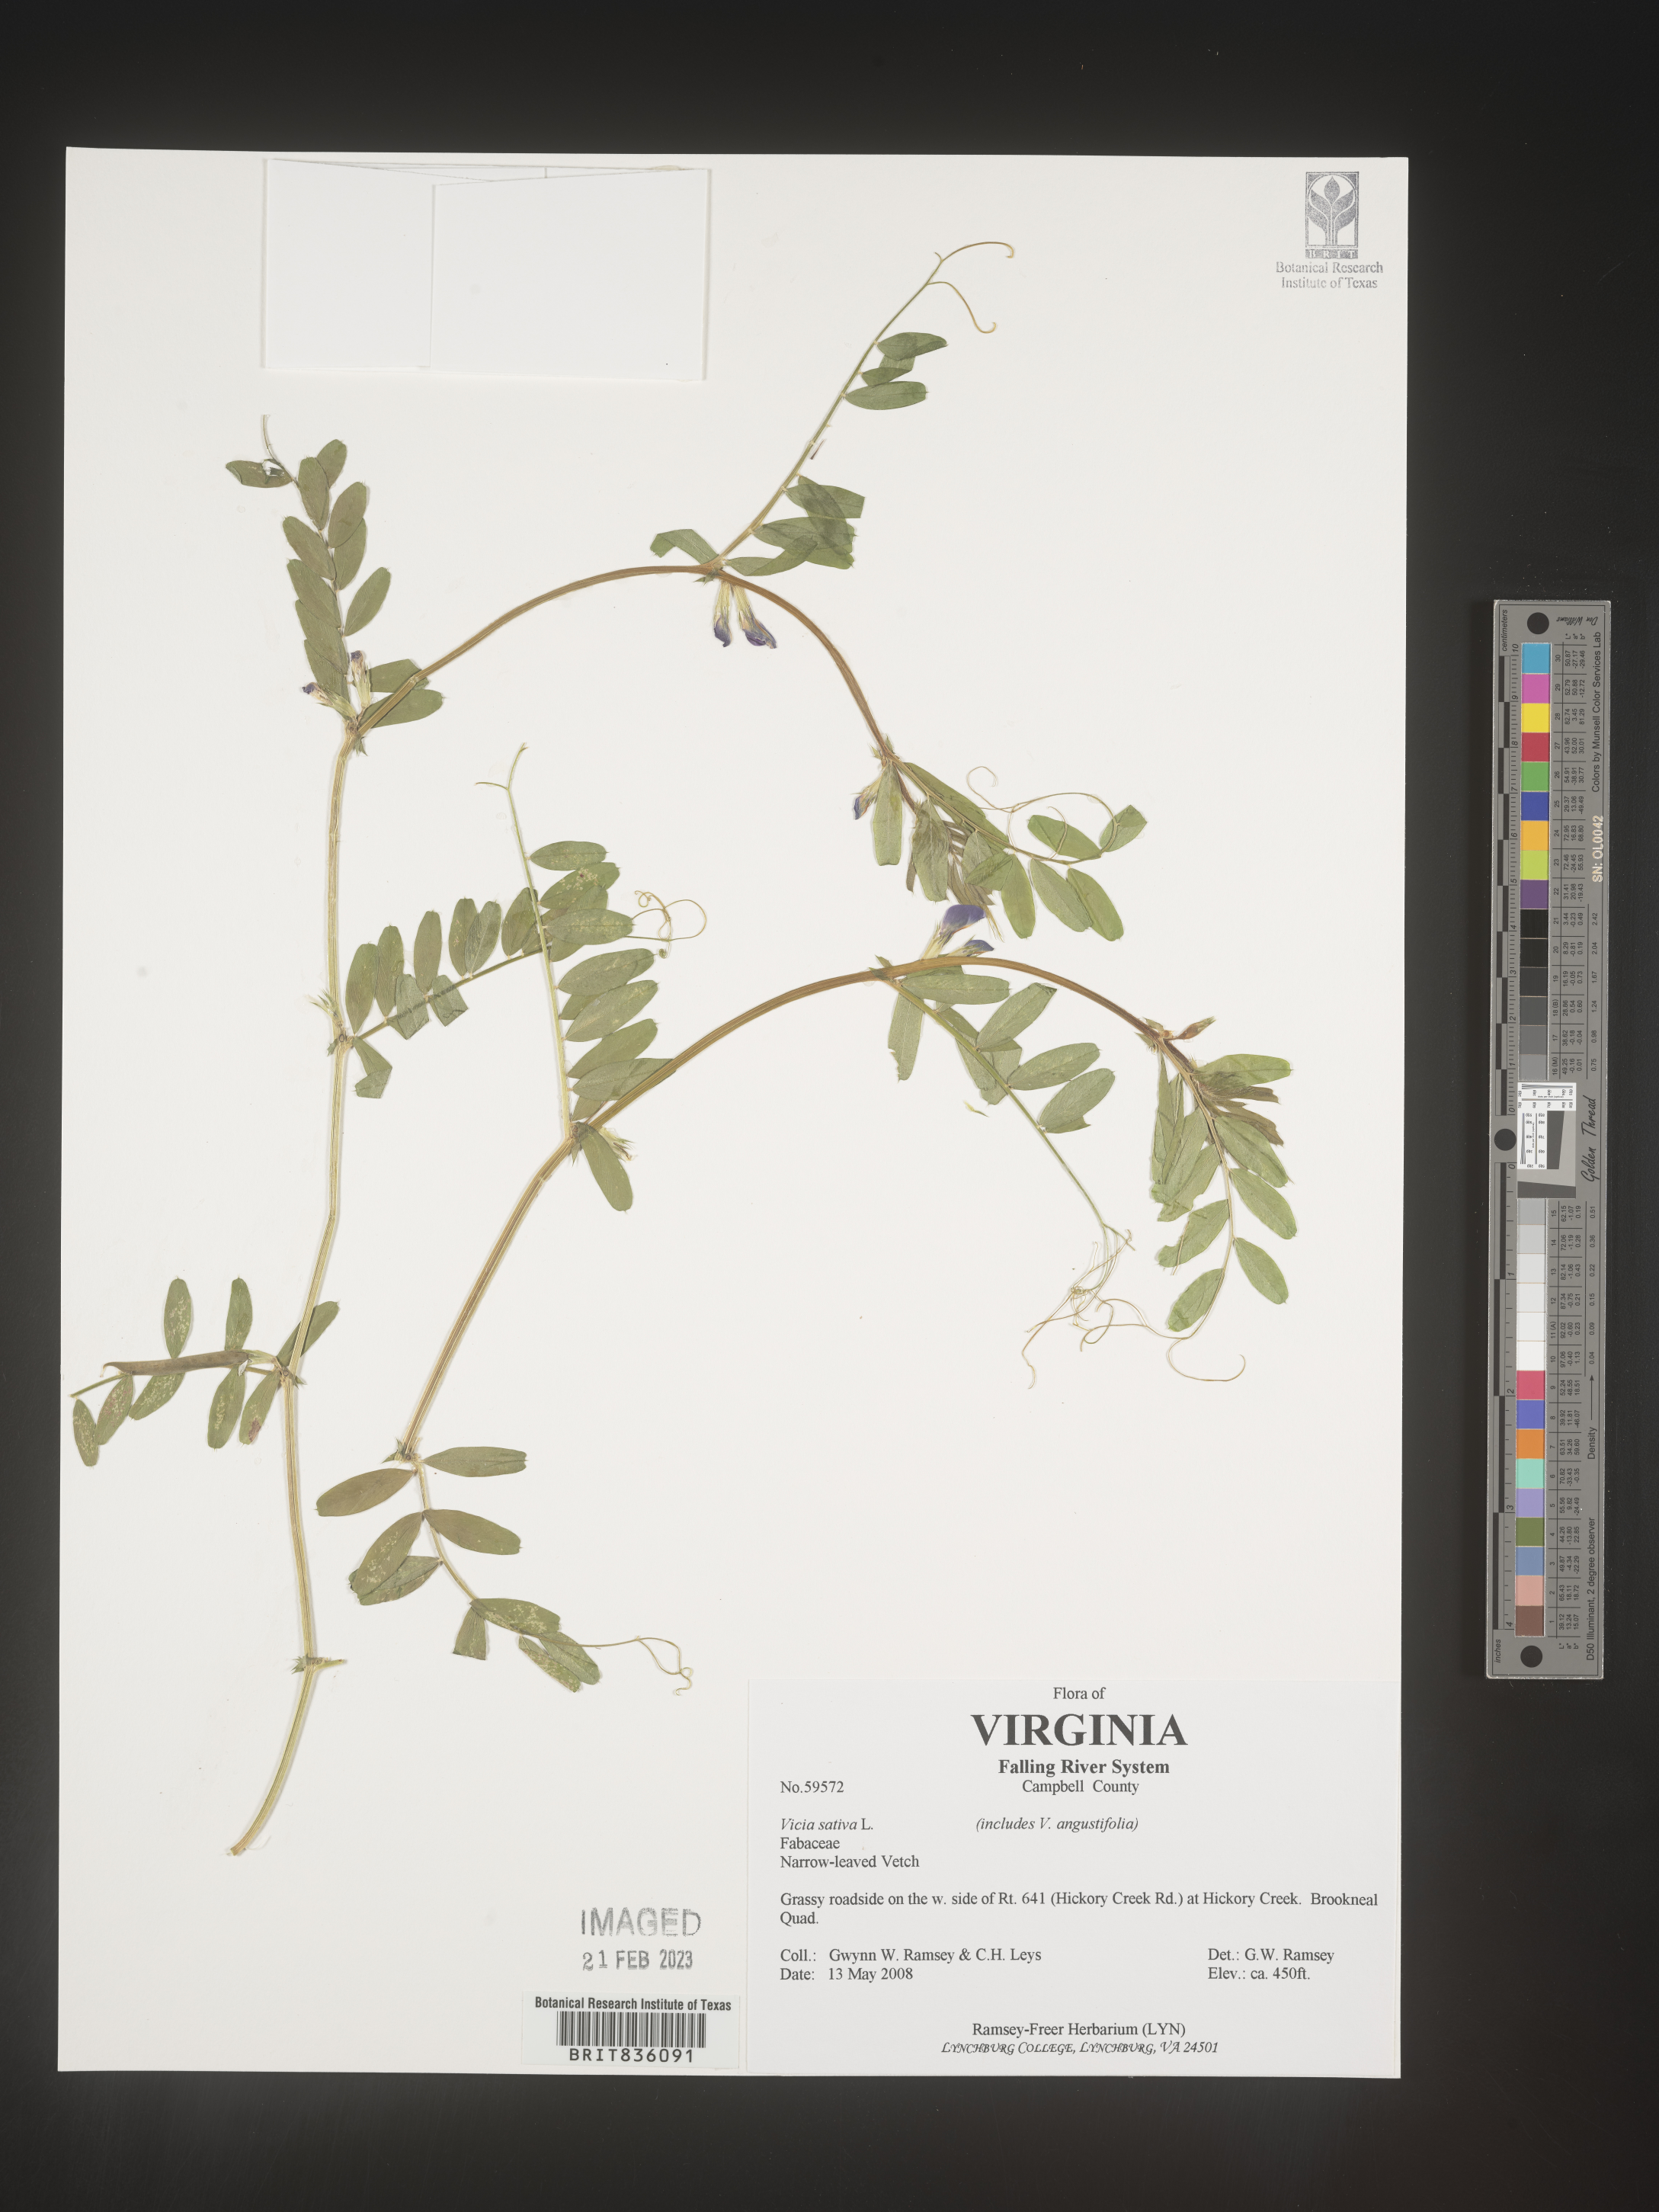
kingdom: Plantae
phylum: Tracheophyta
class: Magnoliopsida
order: Fabales
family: Fabaceae
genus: Vicia
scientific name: Vicia sativa
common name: Garden vetch
